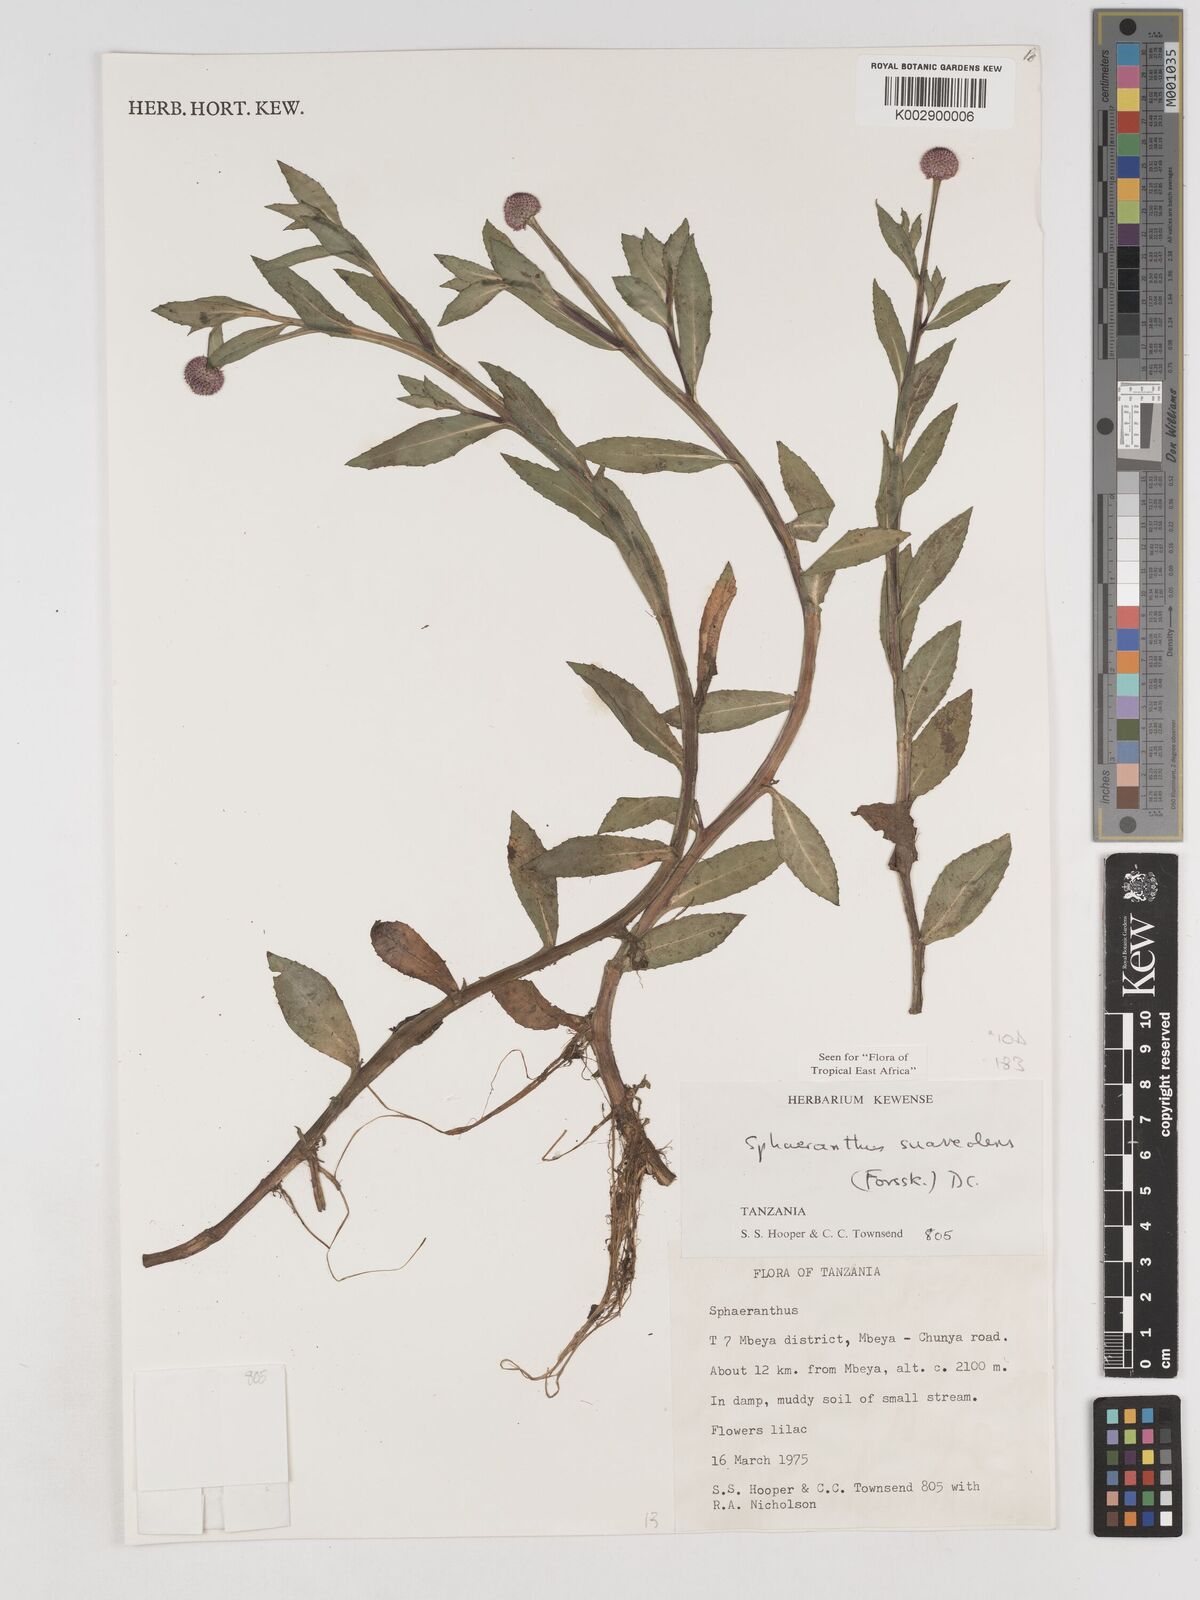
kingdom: Plantae
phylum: Tracheophyta
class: Magnoliopsida
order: Asterales
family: Asteraceae
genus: Sphaeranthus
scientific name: Sphaeranthus suaveolens
